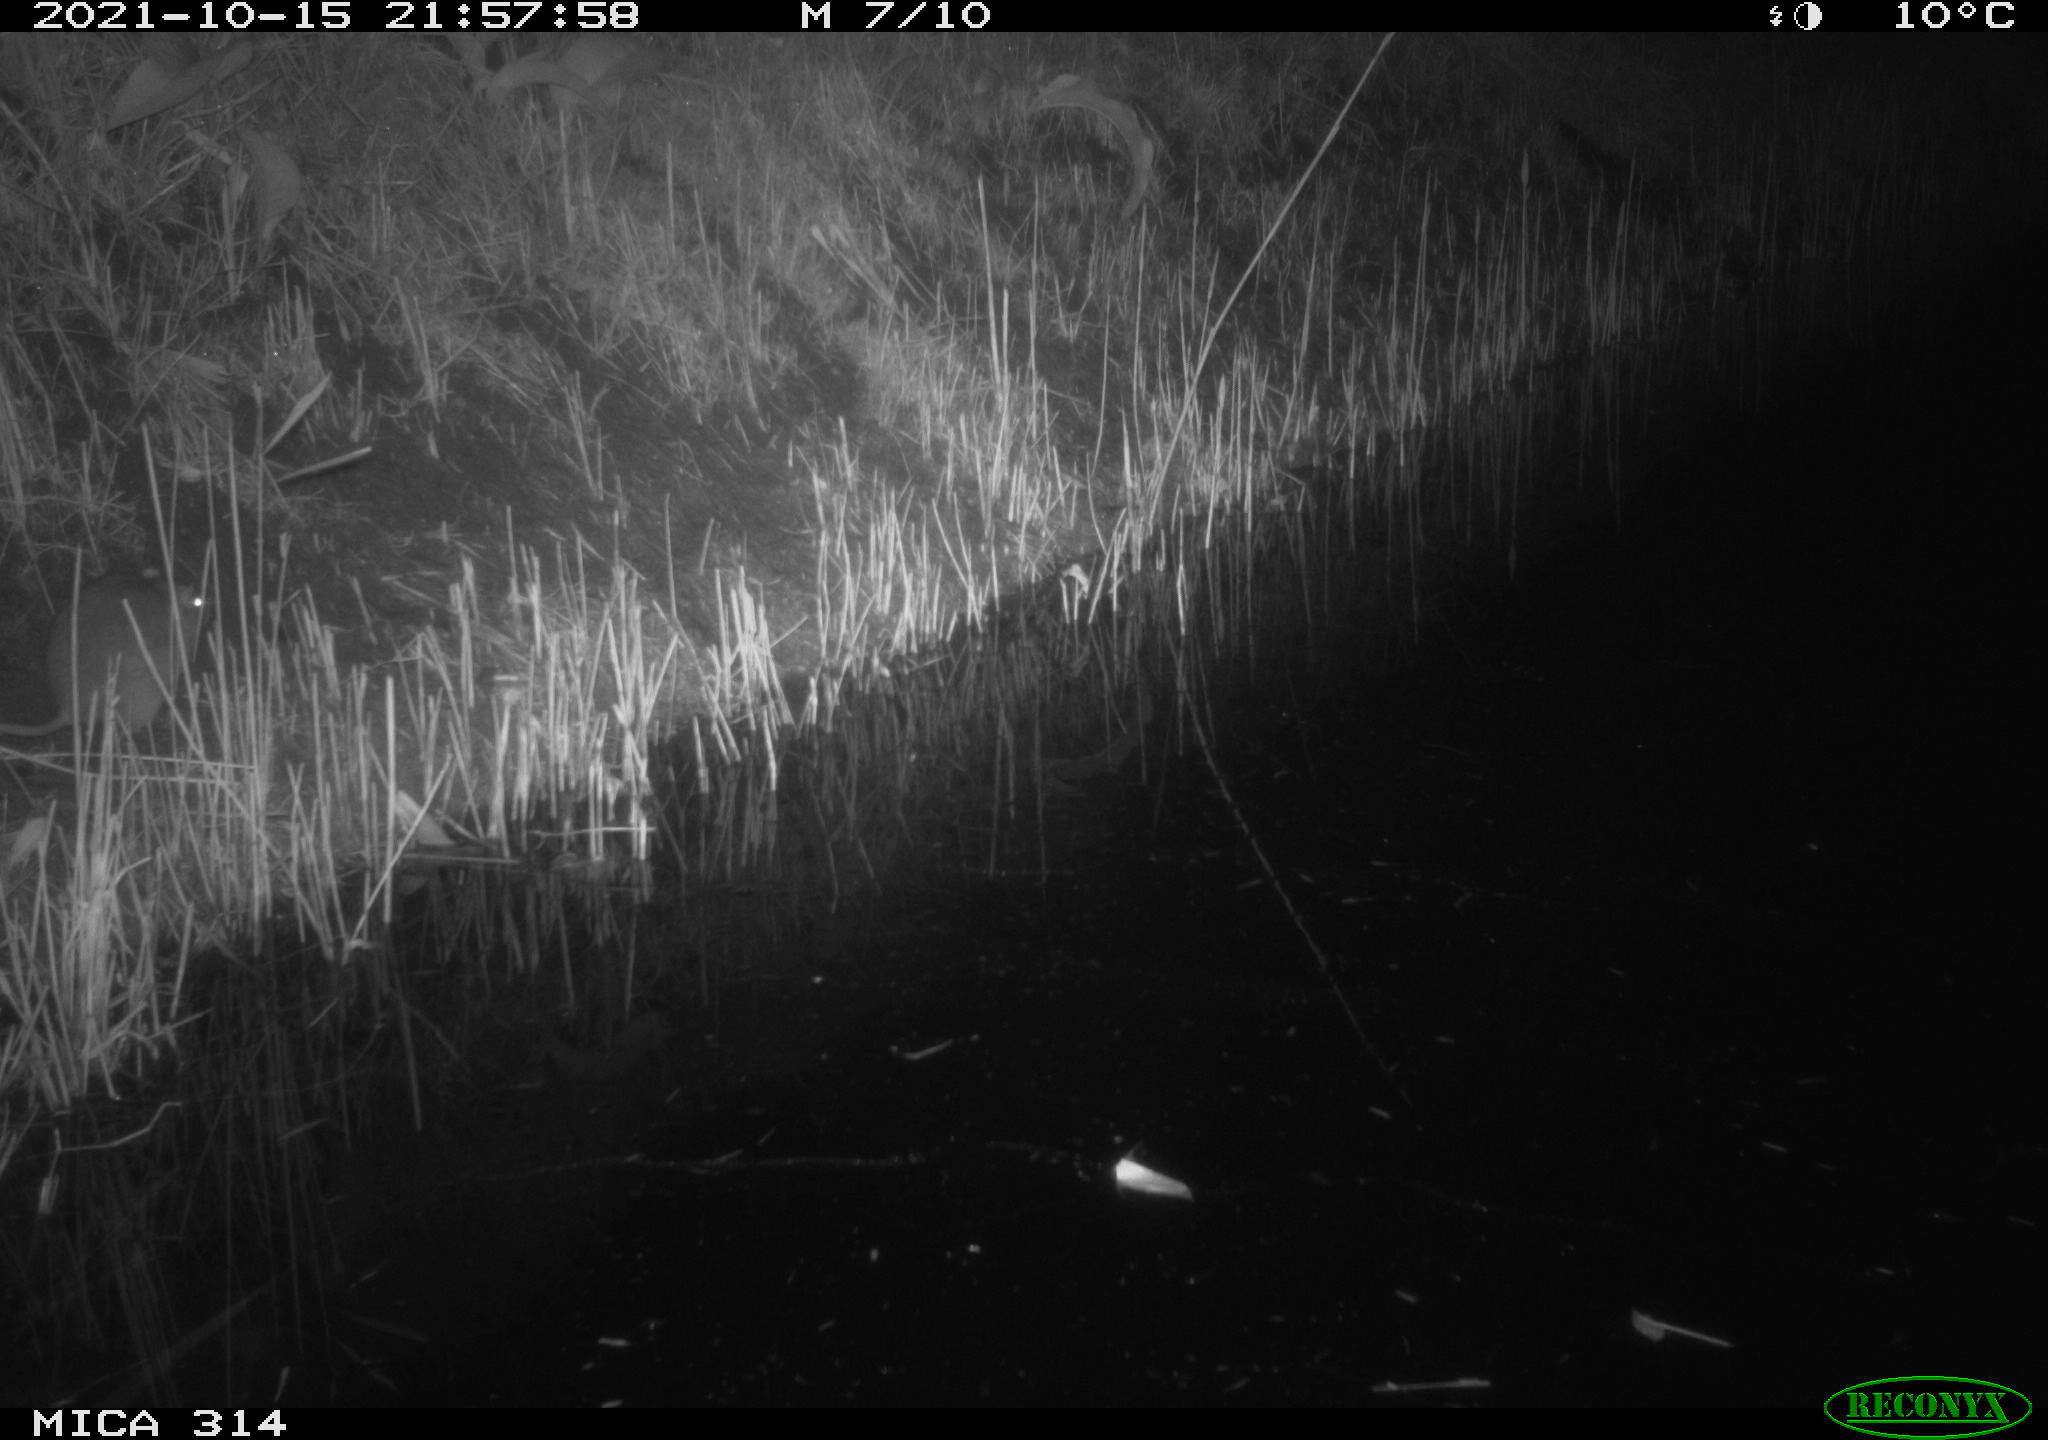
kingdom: Animalia
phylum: Chordata
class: Mammalia
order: Rodentia
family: Muridae
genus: Rattus
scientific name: Rattus norvegicus
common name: Brown rat
